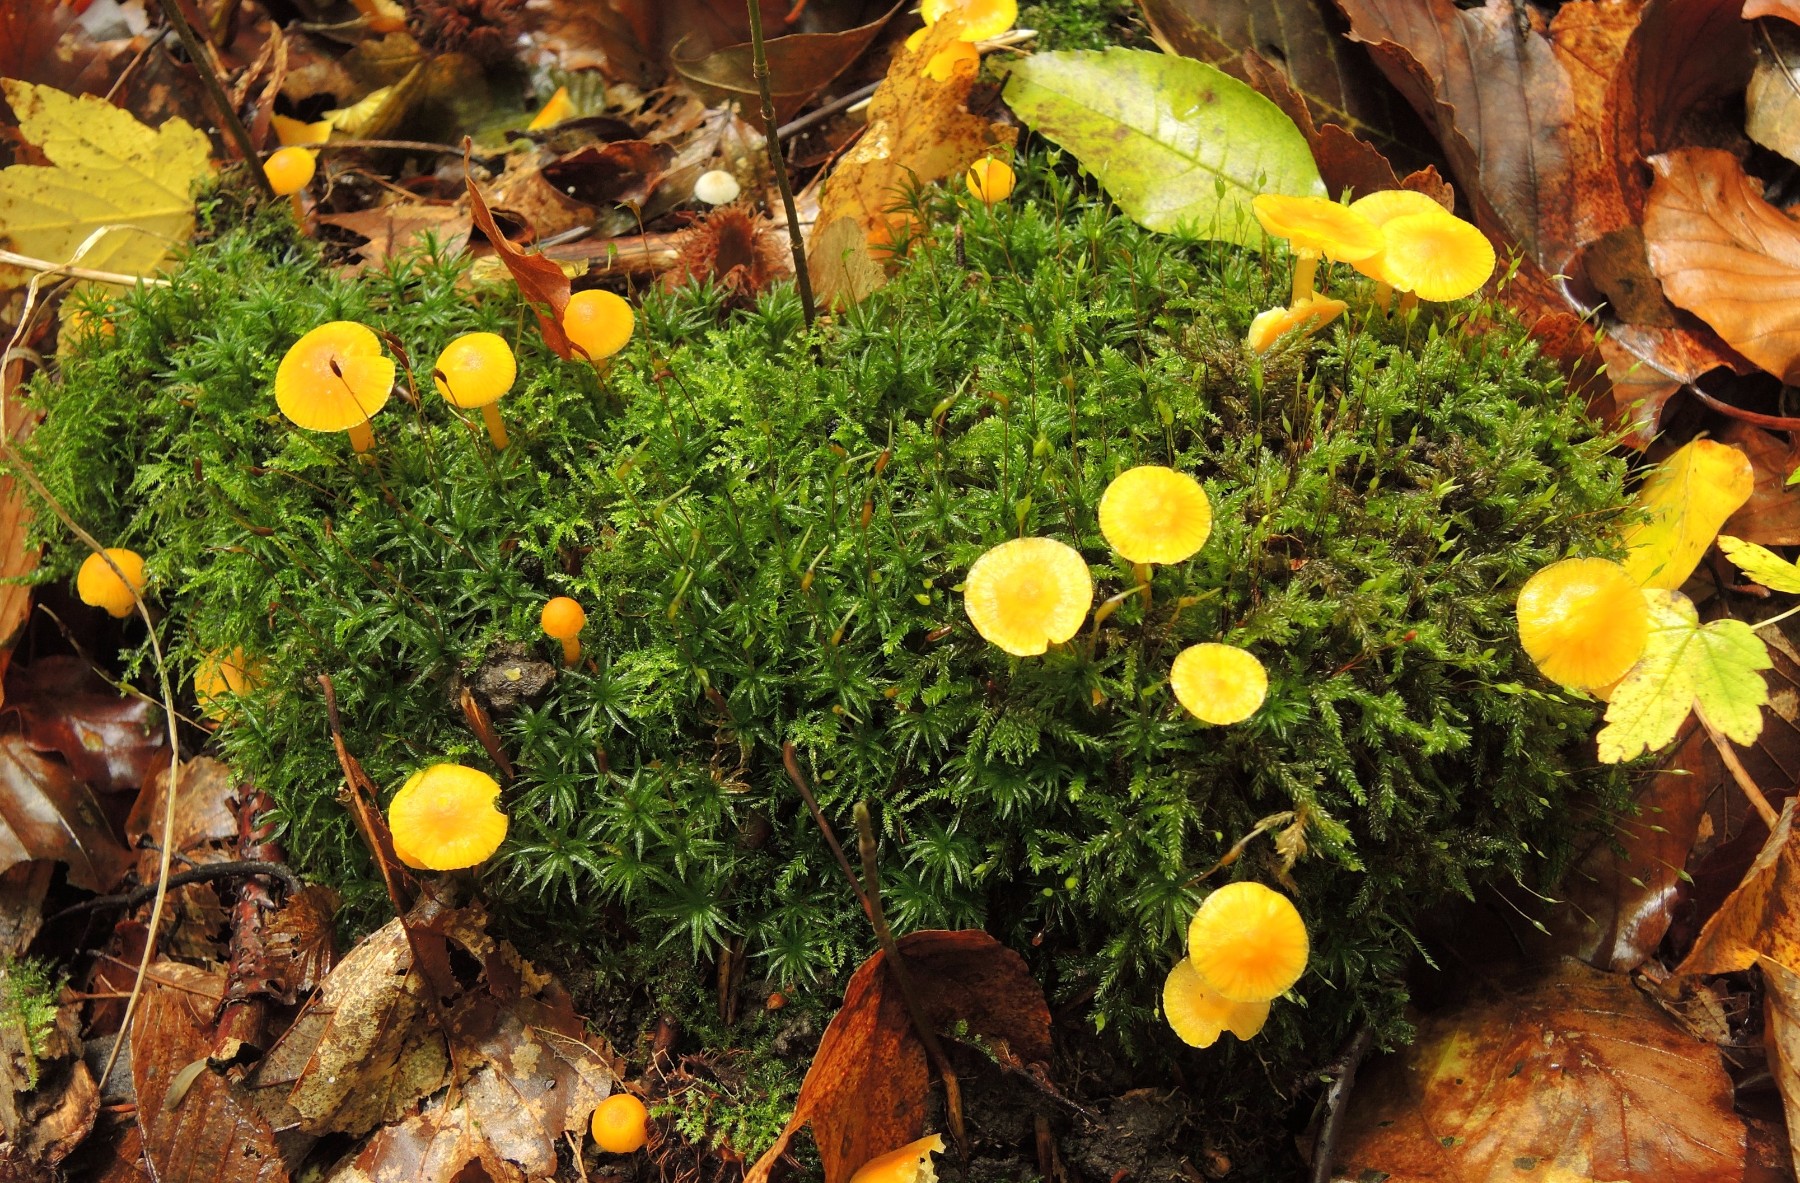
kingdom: Fungi
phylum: Basidiomycota
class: Agaricomycetes
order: Agaricales
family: Hygrophoraceae
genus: Hygrocybe
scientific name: Hygrocybe ceracea
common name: voksgul vokshat
